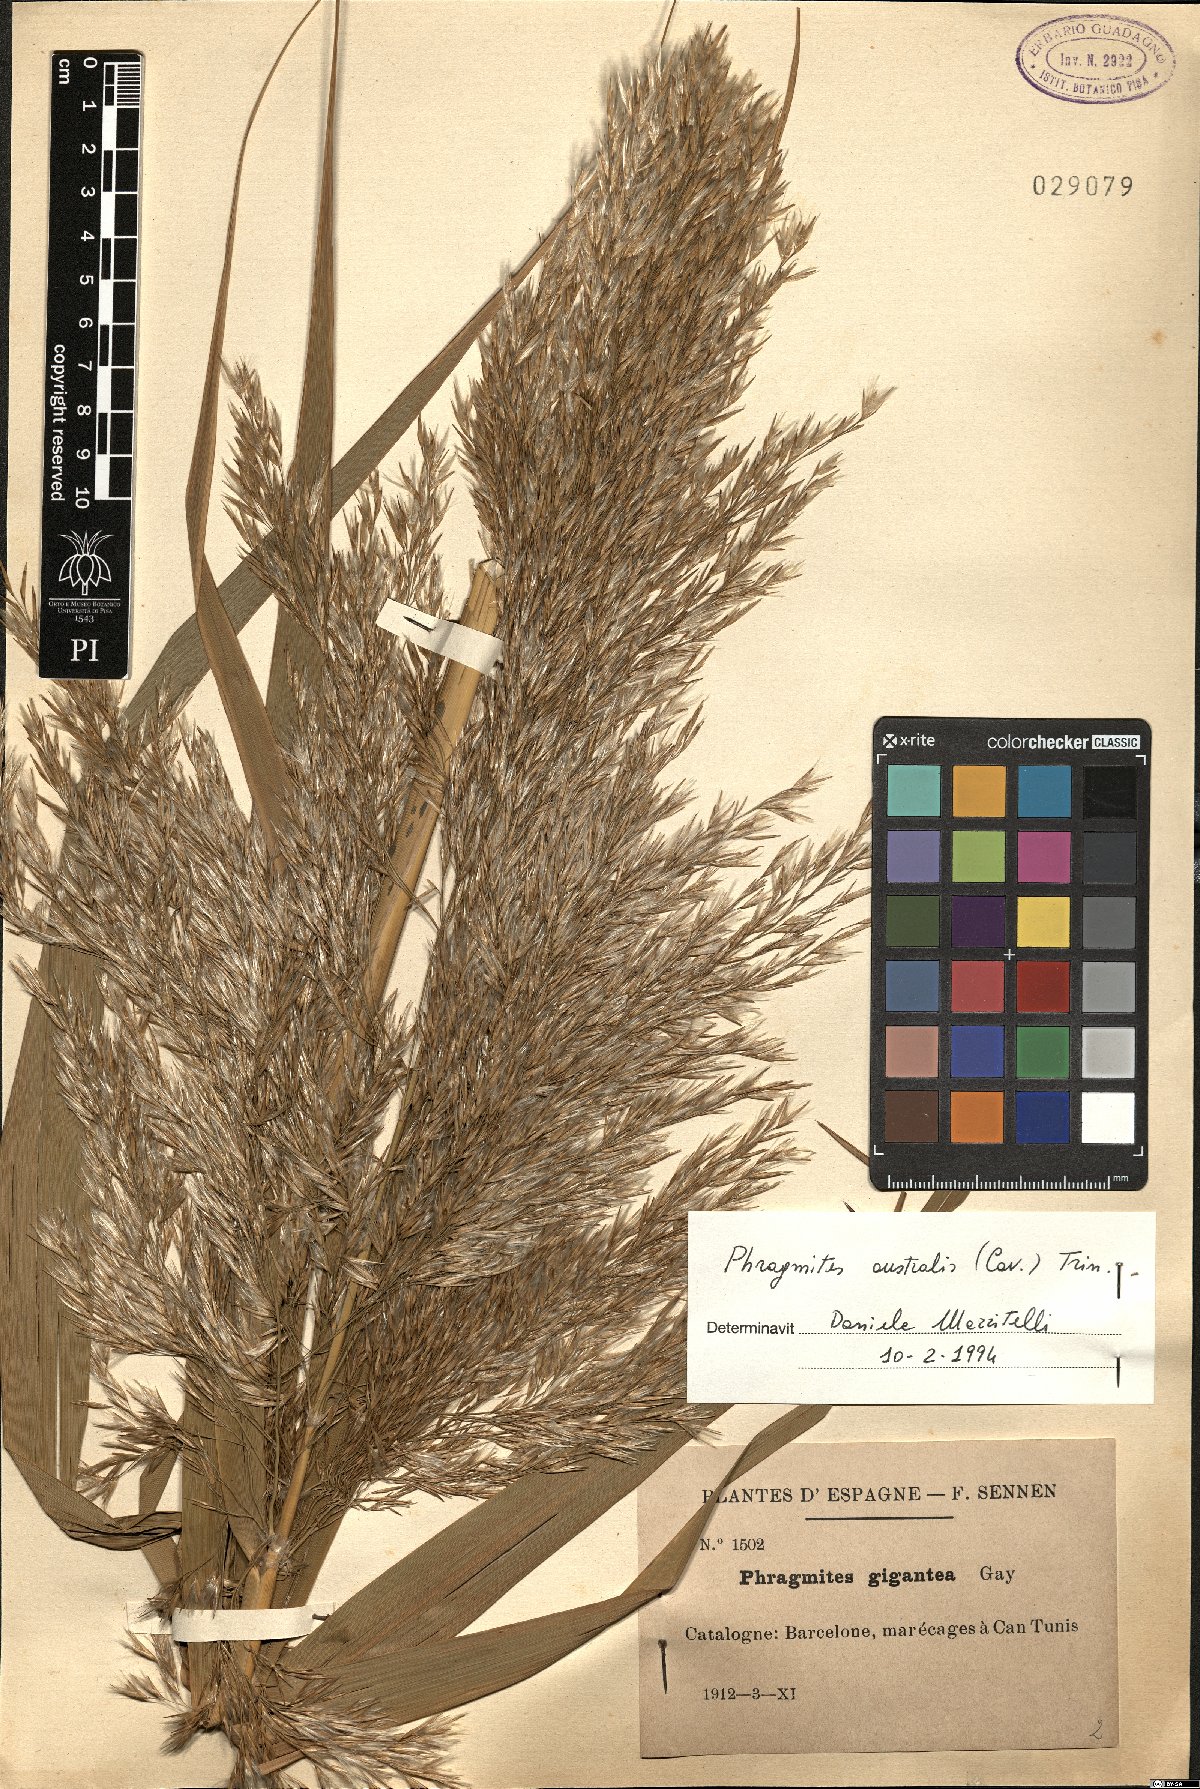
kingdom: Plantae
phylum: Tracheophyta
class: Liliopsida
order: Poales
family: Poaceae
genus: Phragmites
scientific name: Phragmites australis
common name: Common reed
